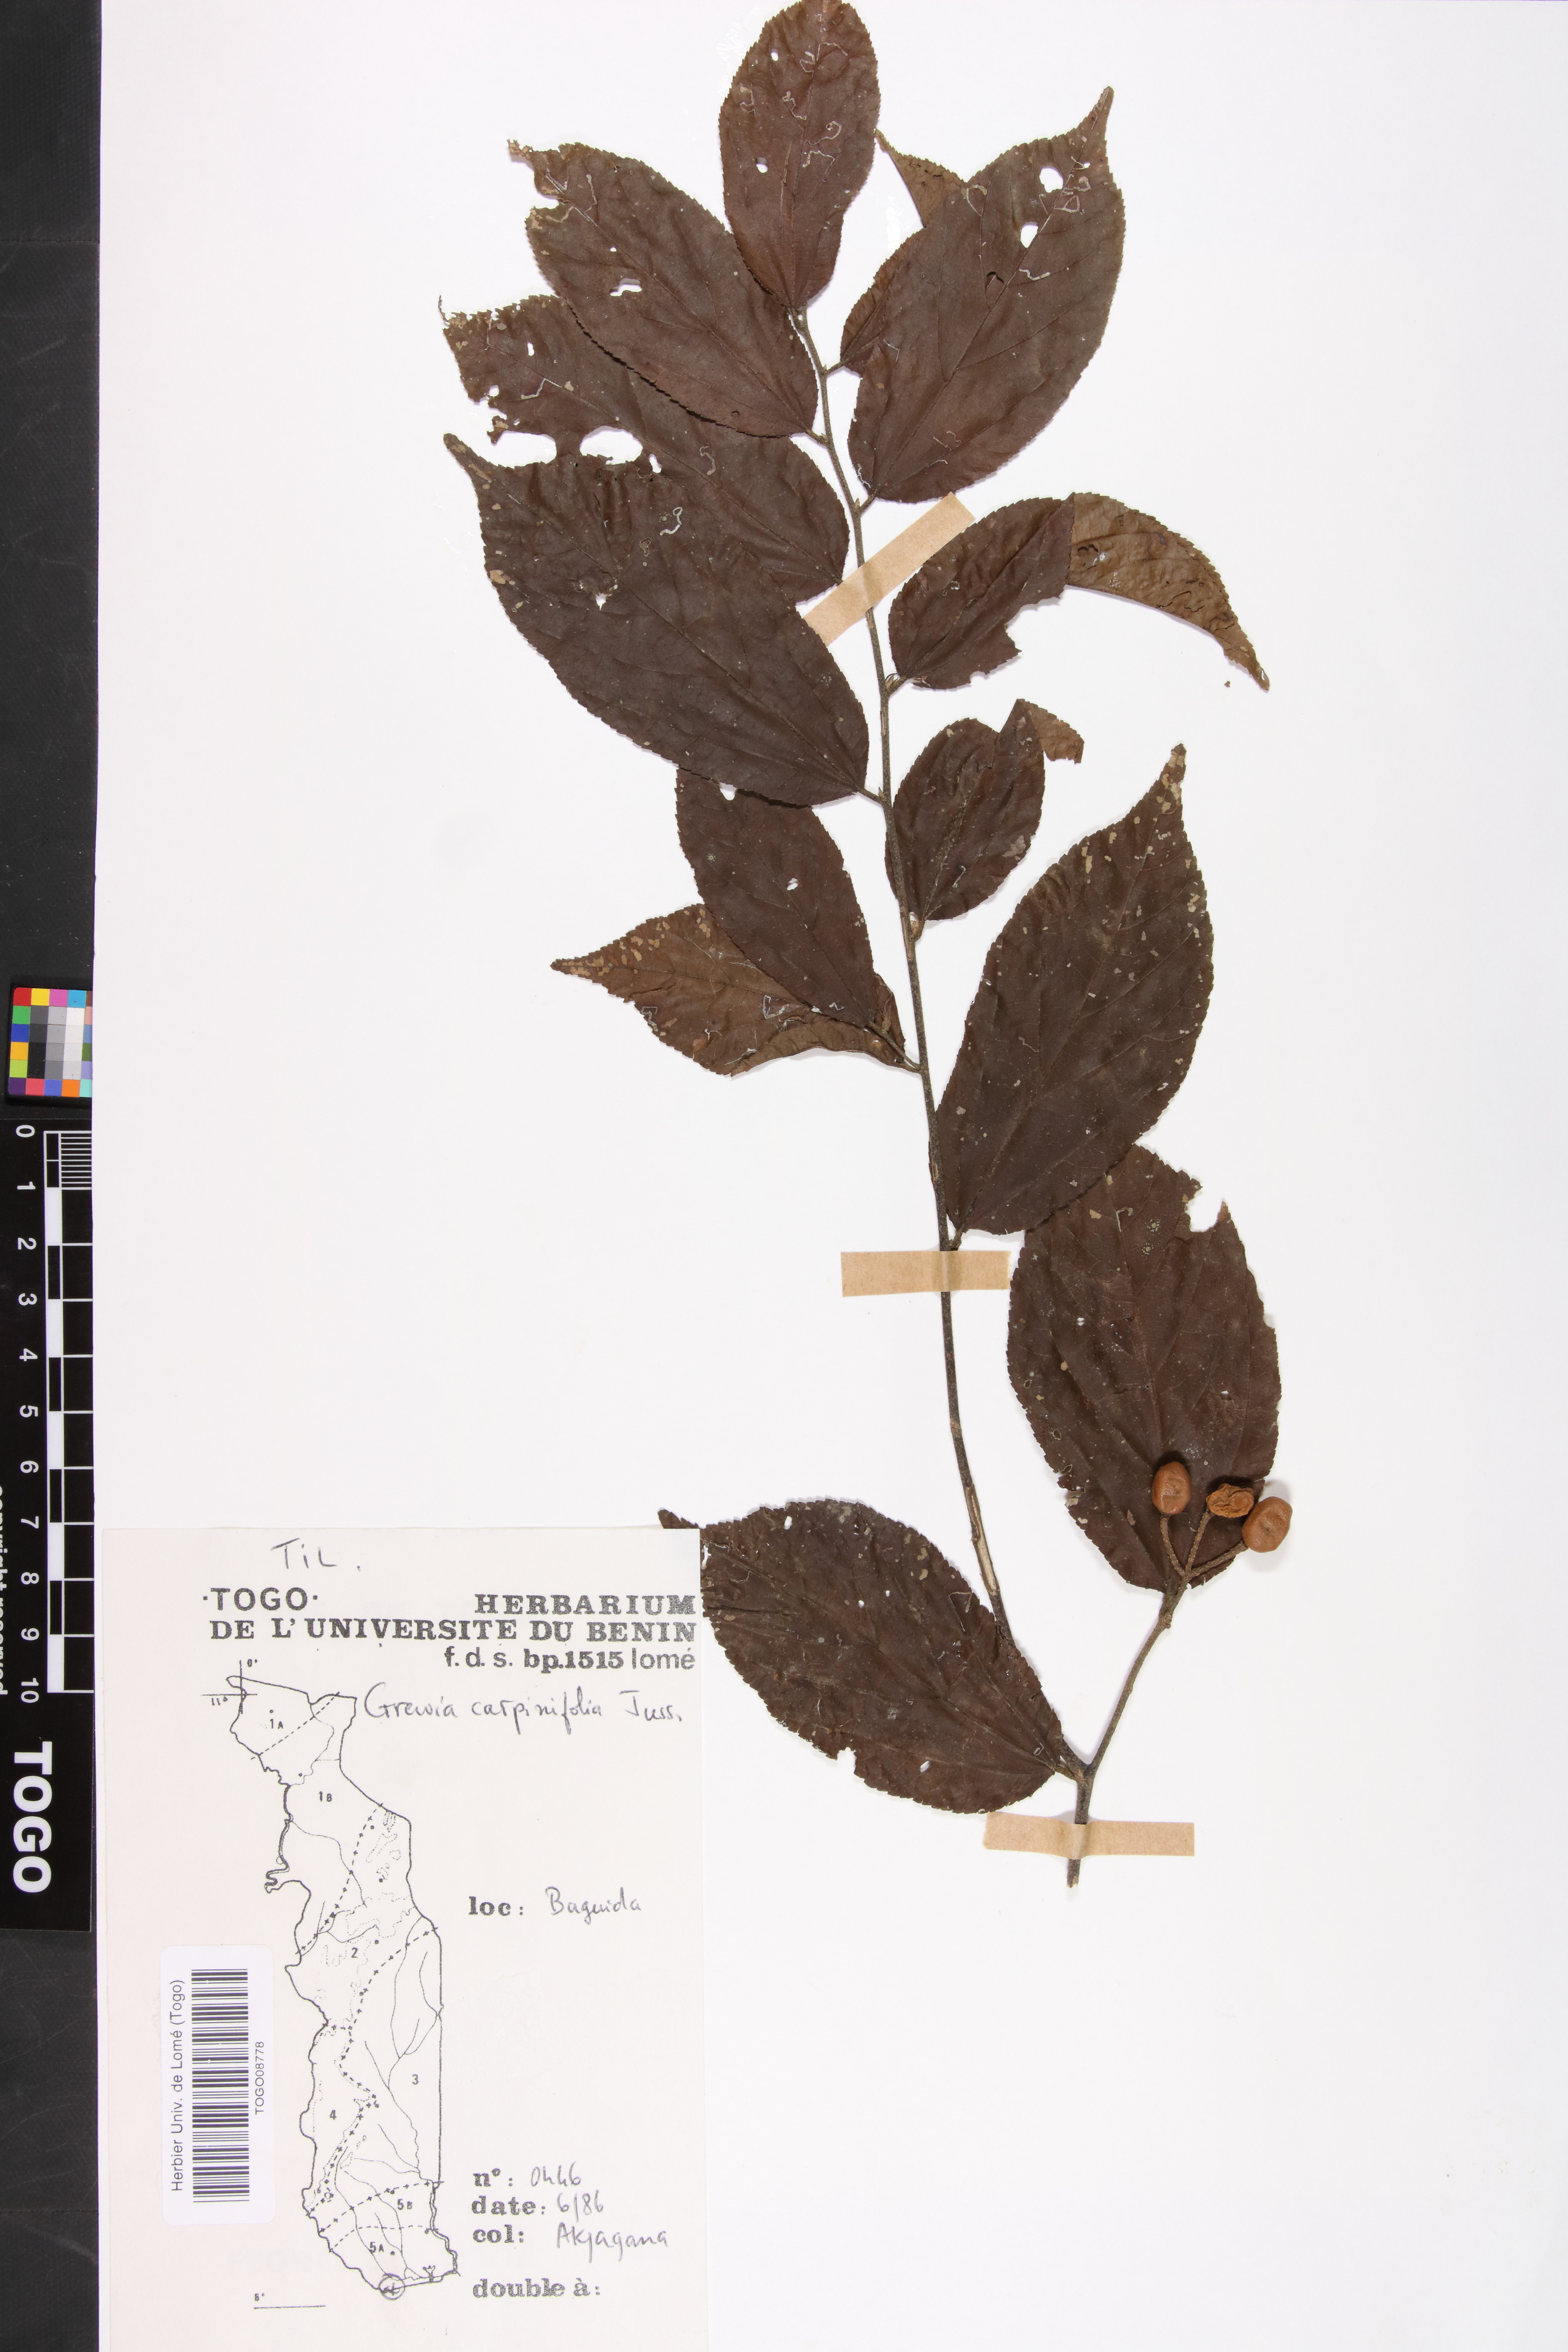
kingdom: Plantae
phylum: Tracheophyta
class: Magnoliopsida
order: Malvales
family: Malvaceae
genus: Grewia
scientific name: Grewia carpinifolia
